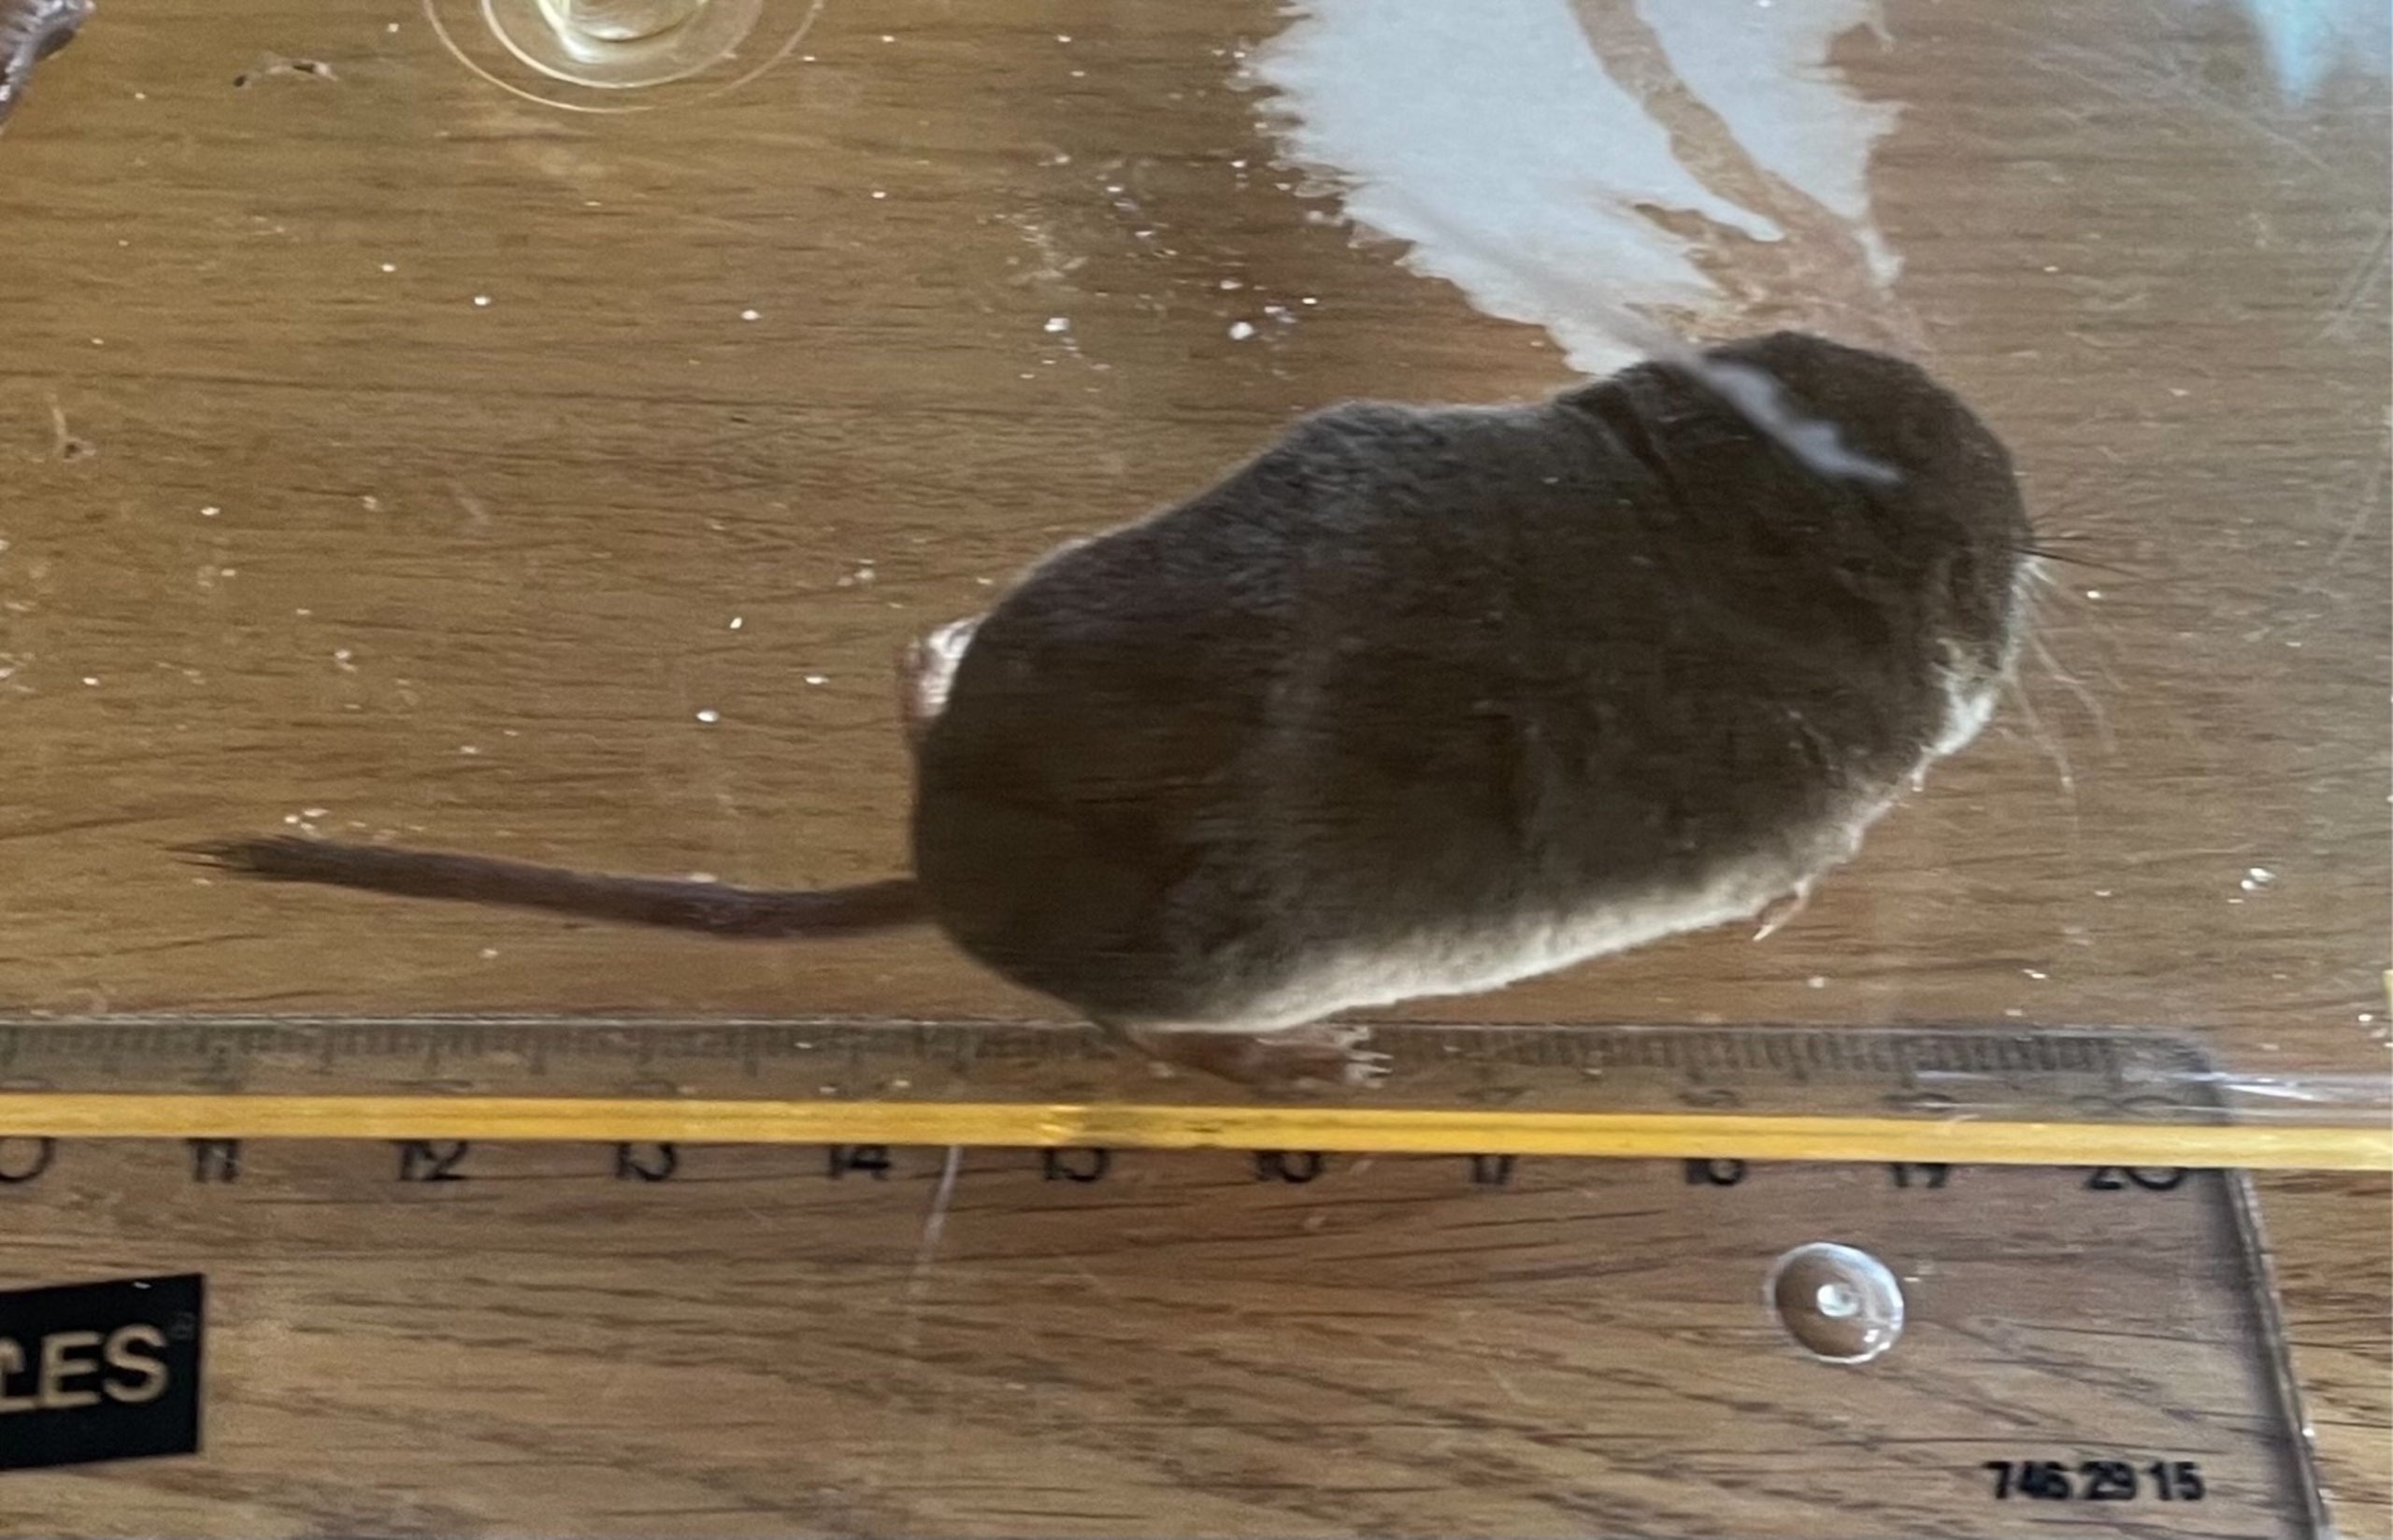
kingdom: Animalia
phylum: Chordata
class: Mammalia
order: Soricomorpha
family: Soricidae
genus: Sorex
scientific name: Sorex araneus
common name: Almindelig spidsmus
